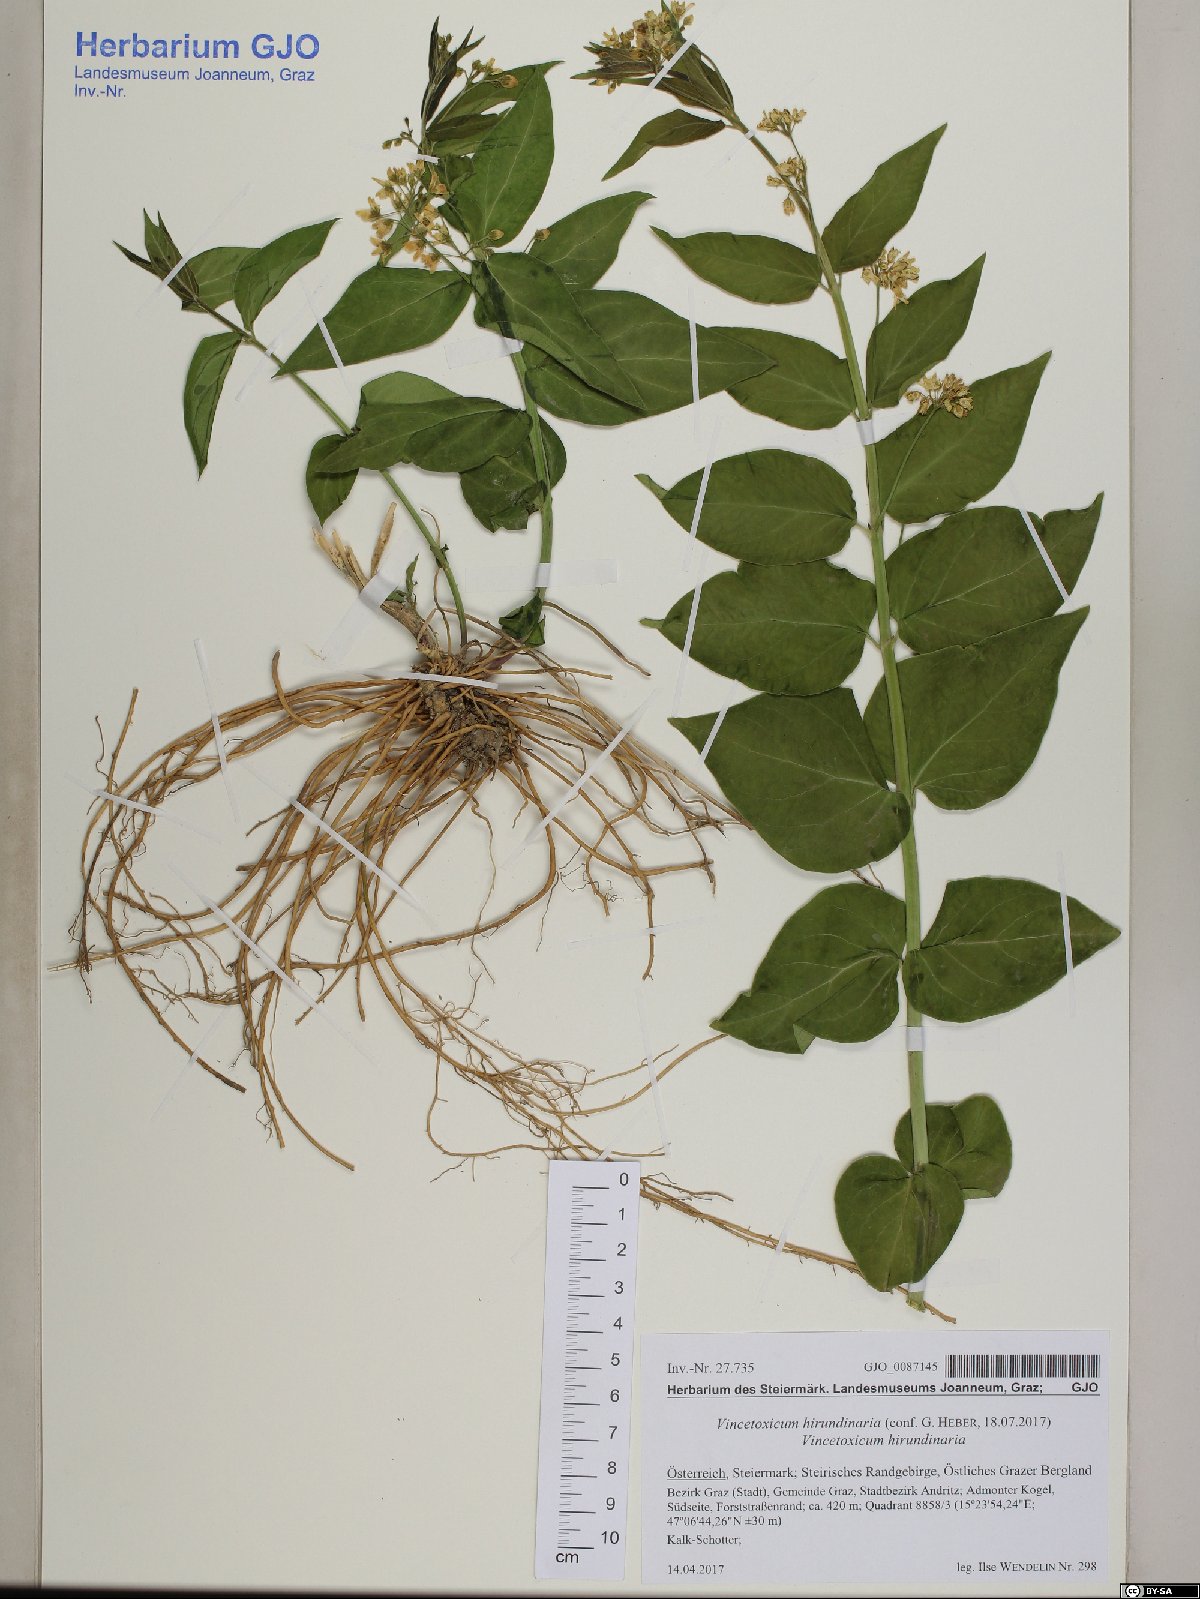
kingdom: Plantae
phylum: Tracheophyta
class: Magnoliopsida
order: Gentianales
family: Apocynaceae
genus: Vincetoxicum
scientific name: Vincetoxicum hirundinaria
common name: White swallowwort
